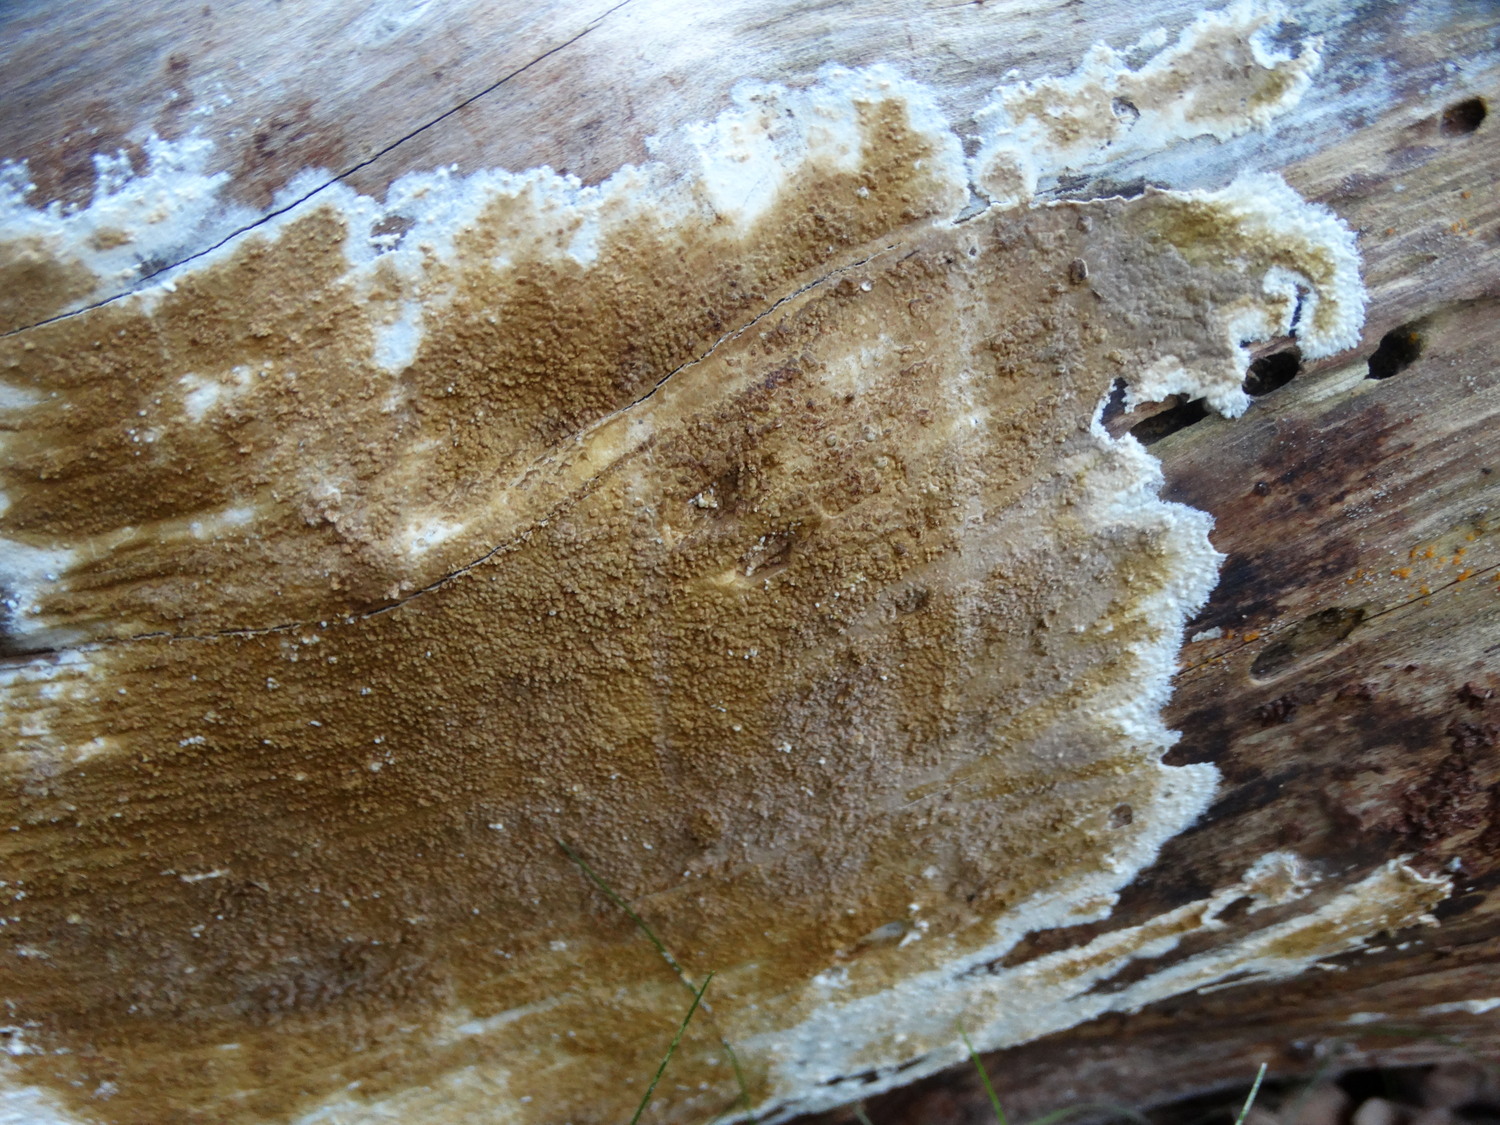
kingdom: Fungi
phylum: Basidiomycota
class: Agaricomycetes
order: Boletales
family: Coniophoraceae
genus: Coniophora
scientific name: Coniophora
